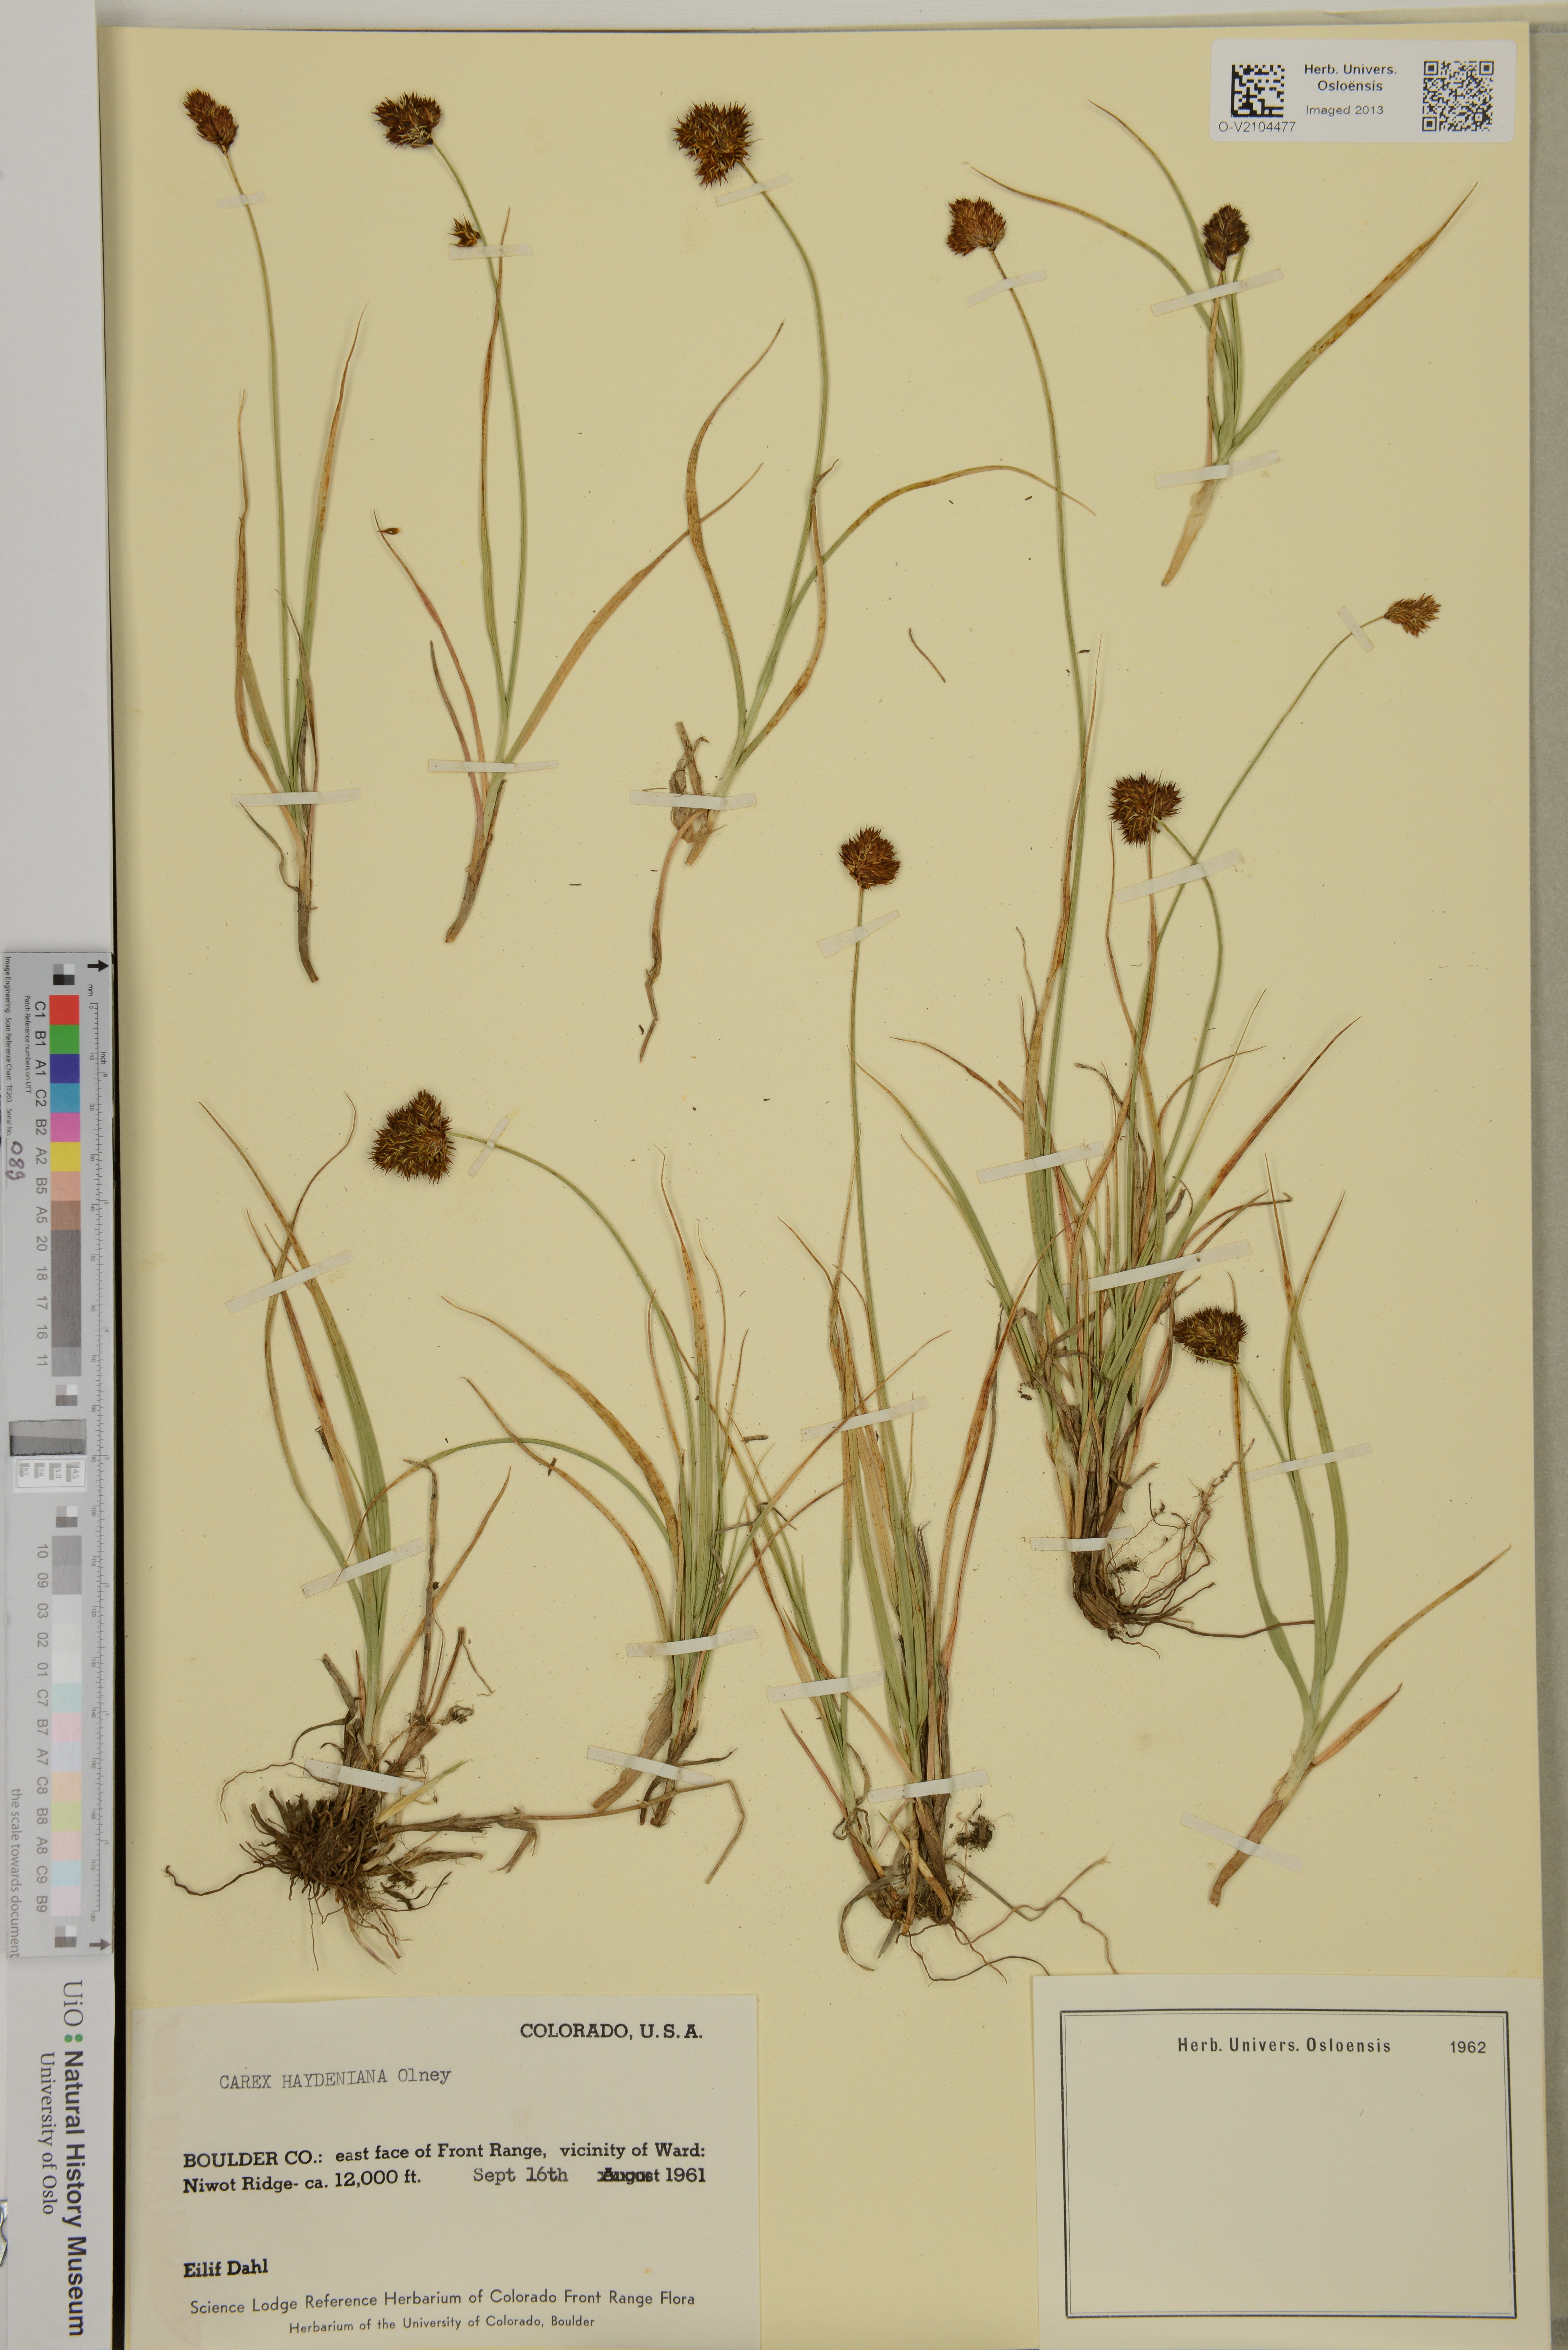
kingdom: Plantae
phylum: Tracheophyta
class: Liliopsida
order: Poales
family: Cyperaceae
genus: Carex
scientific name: Carex haydeniana
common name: Cloud sedge
